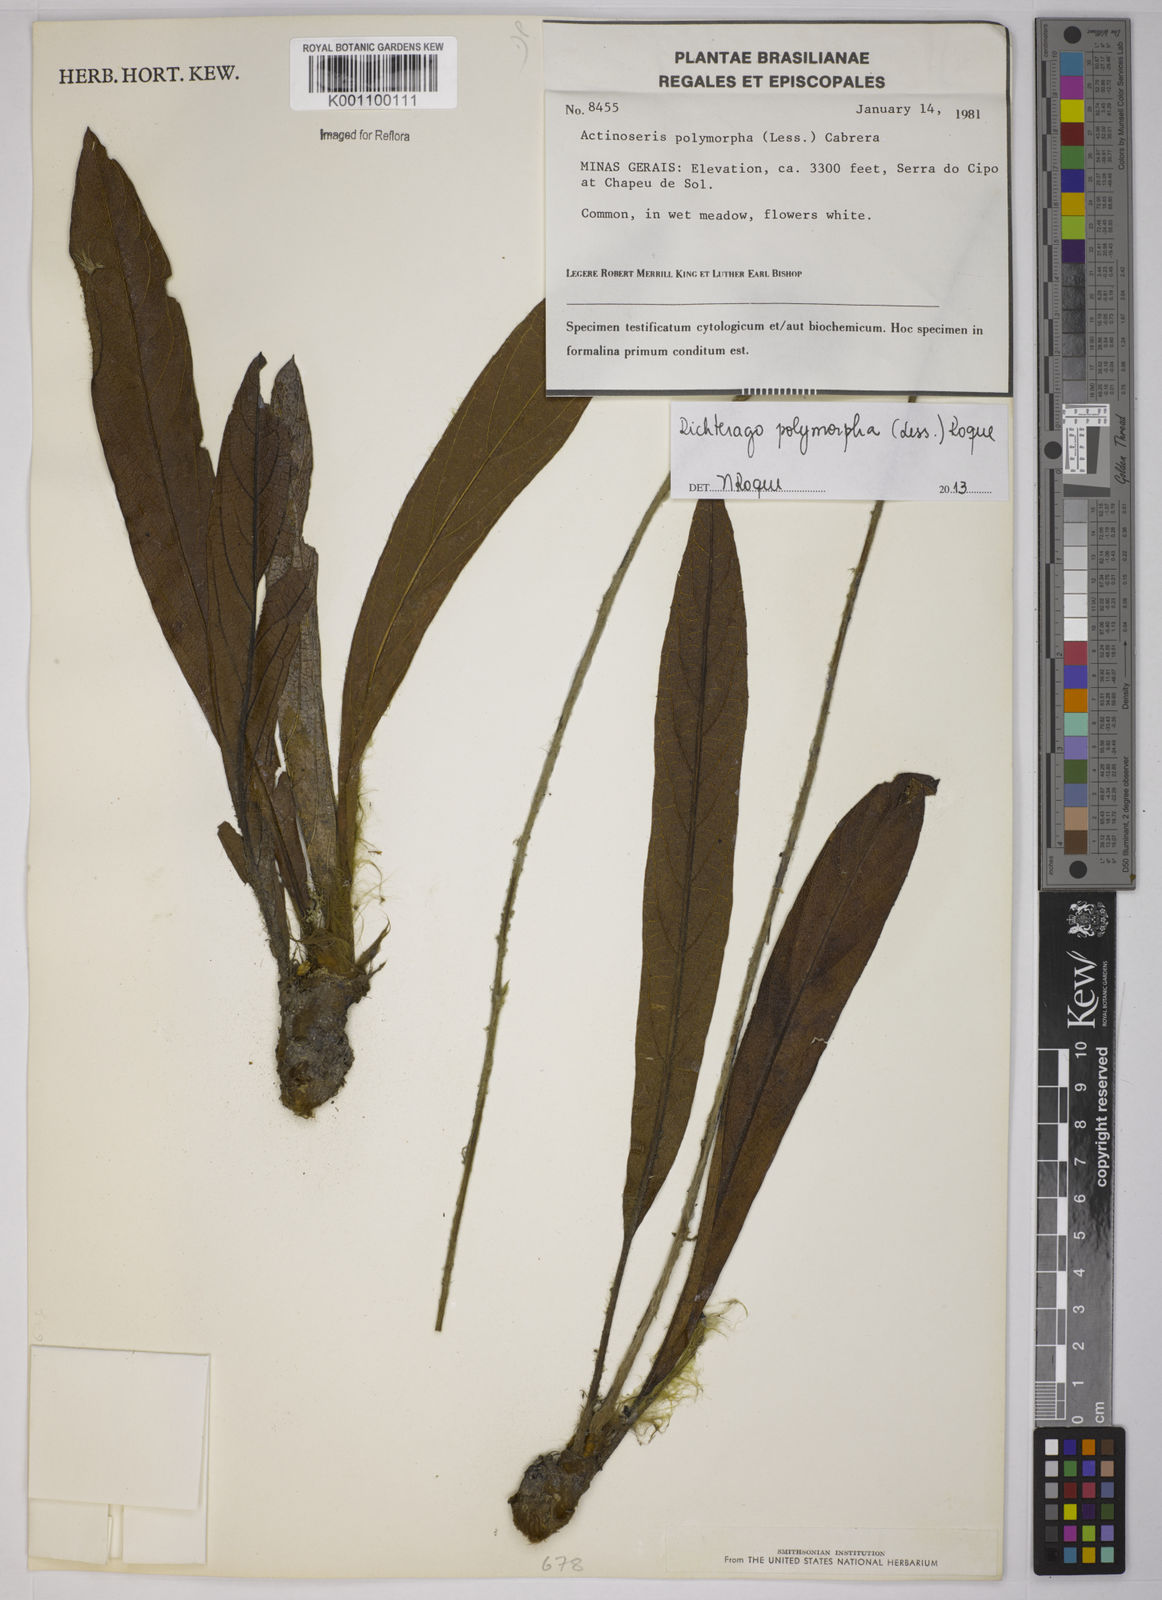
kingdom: Plantae
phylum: Tracheophyta
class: Magnoliopsida
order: Asterales
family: Asteraceae
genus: Richterago
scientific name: Richterago polymorpha
